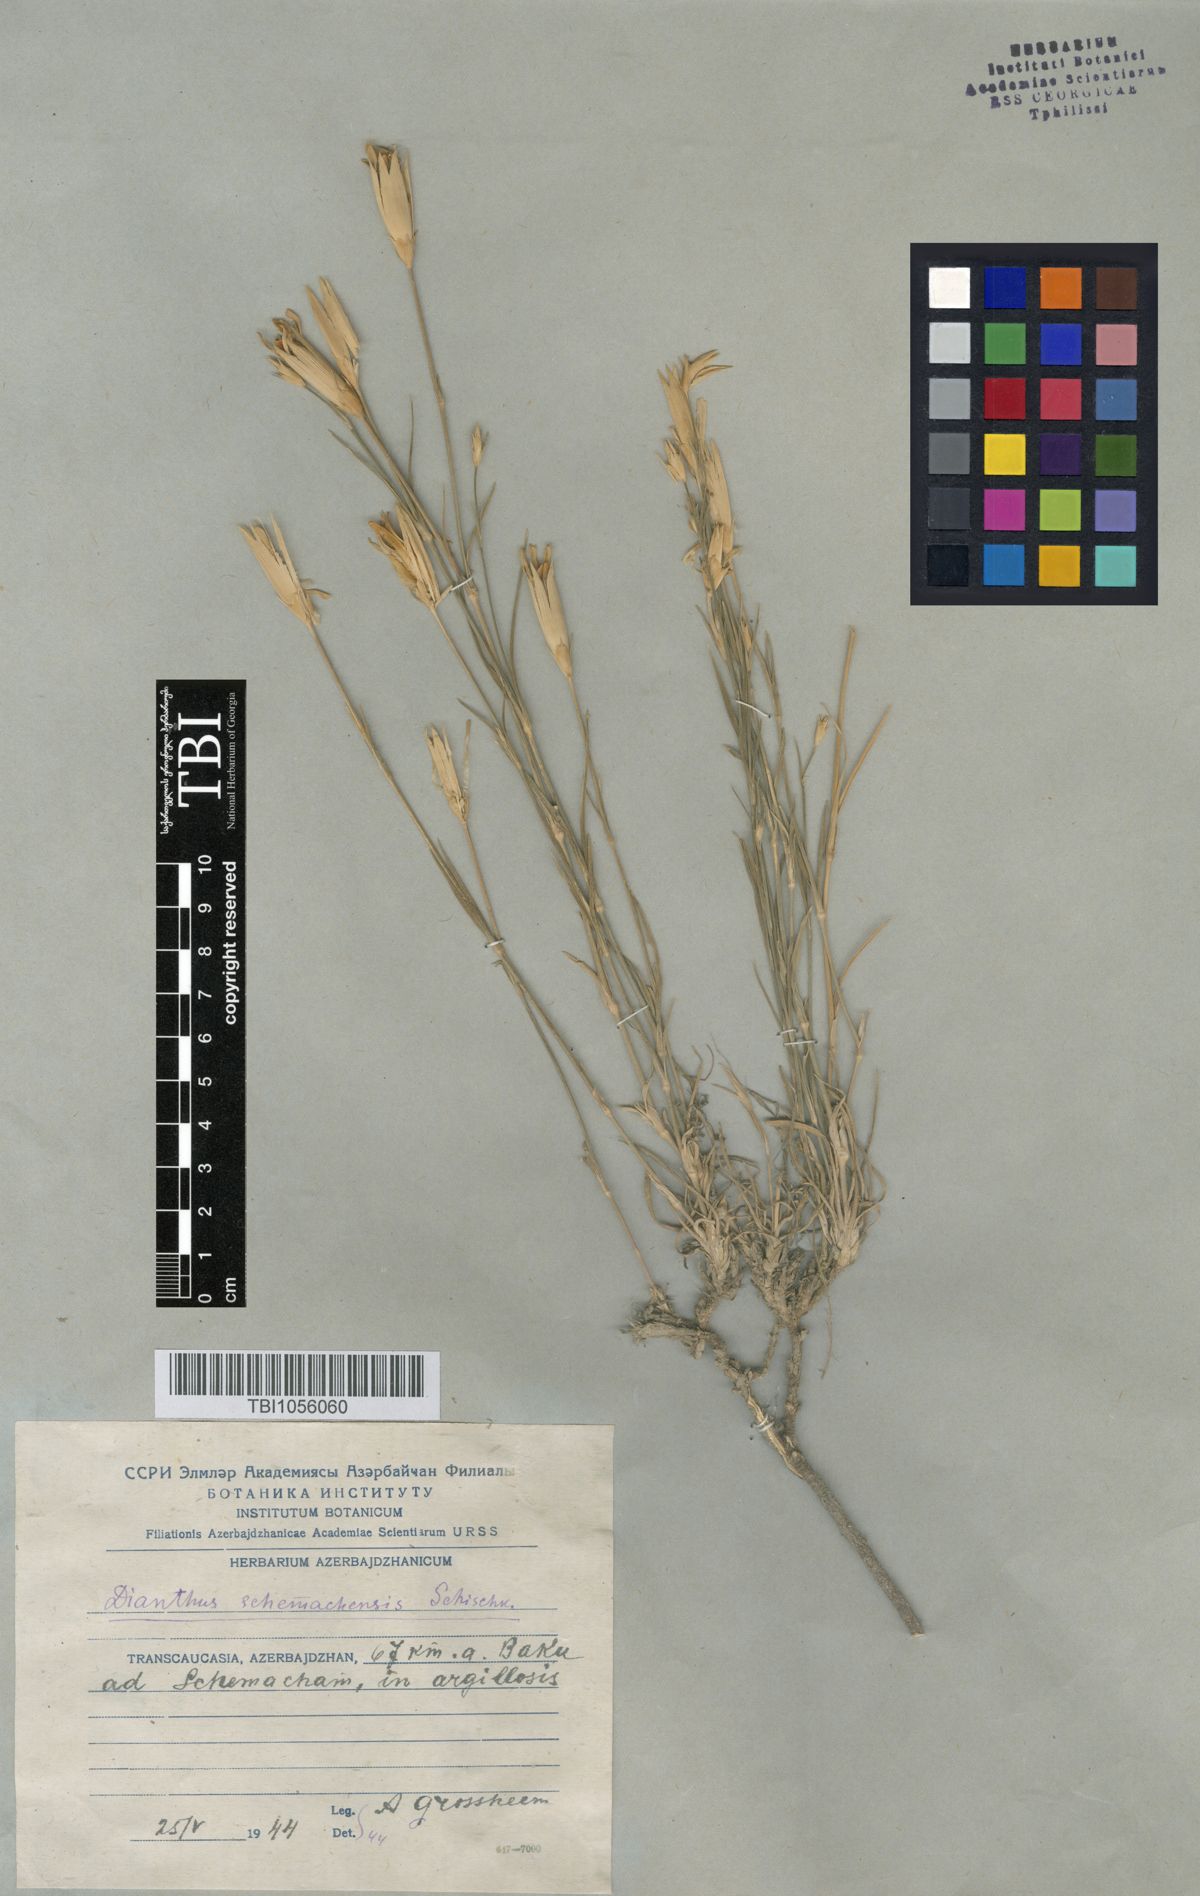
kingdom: Plantae
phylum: Tracheophyta
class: Magnoliopsida
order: Caryophyllales
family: Caryophyllaceae
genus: Dianthus
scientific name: Dianthus
